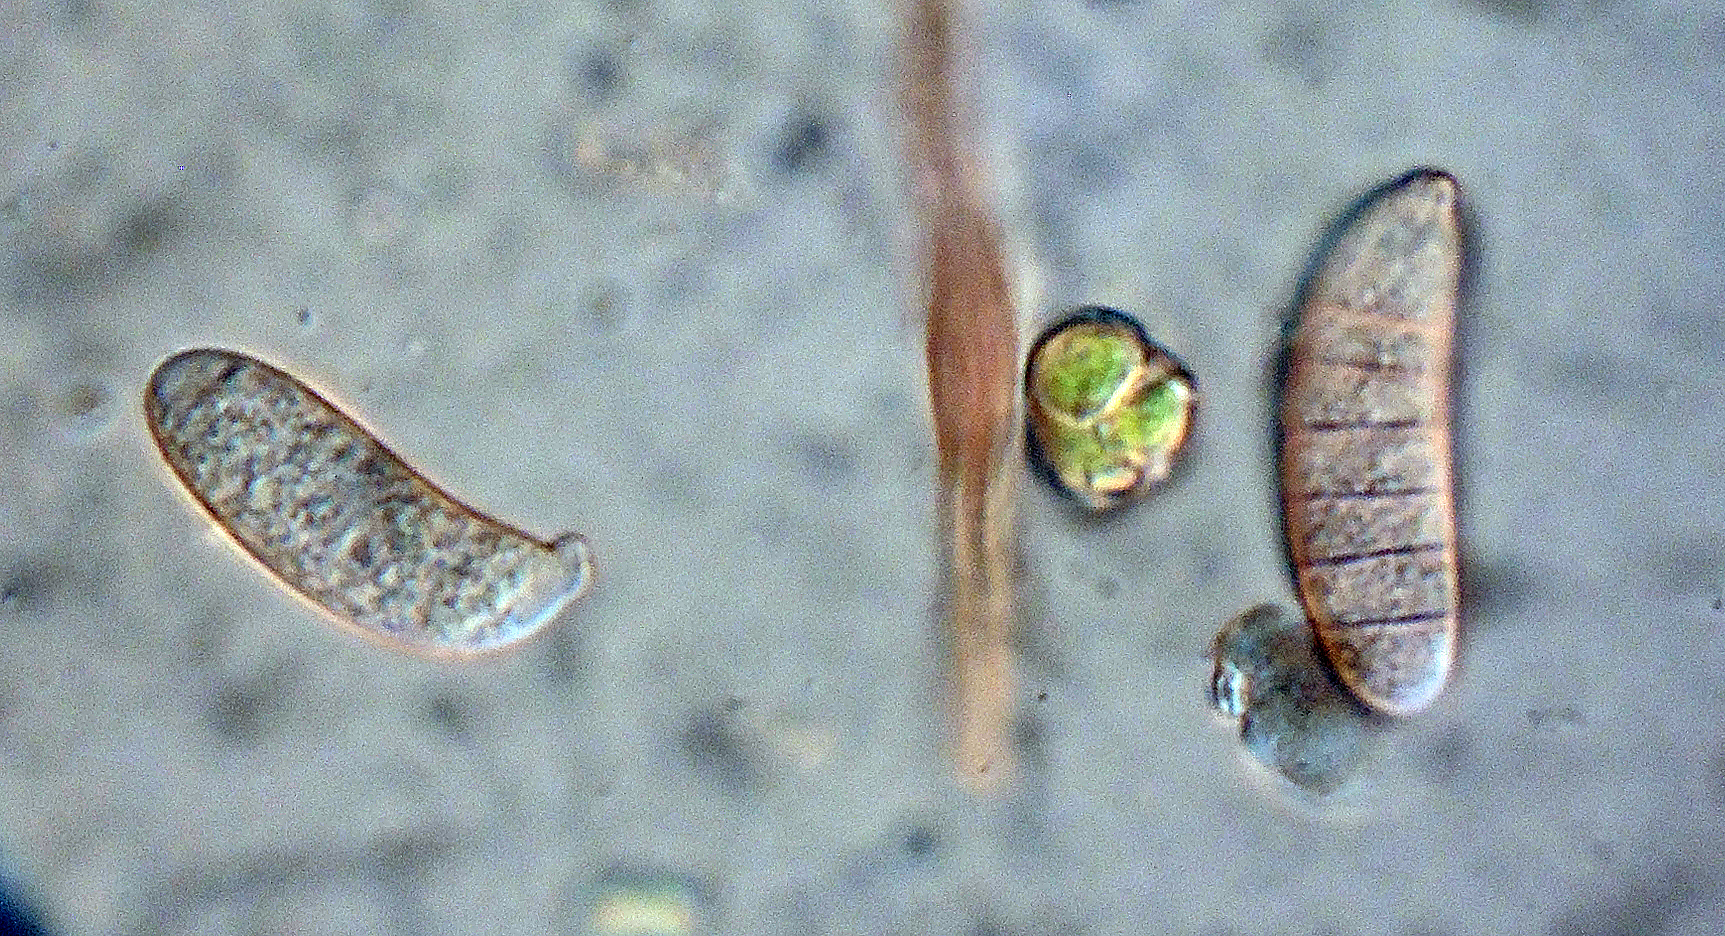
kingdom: Fungi
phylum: Basidiomycota
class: Dacrymycetes
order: Dacrymycetales
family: Dacrymycetaceae
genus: Dacrymyces
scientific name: Dacrymyces variisporus
